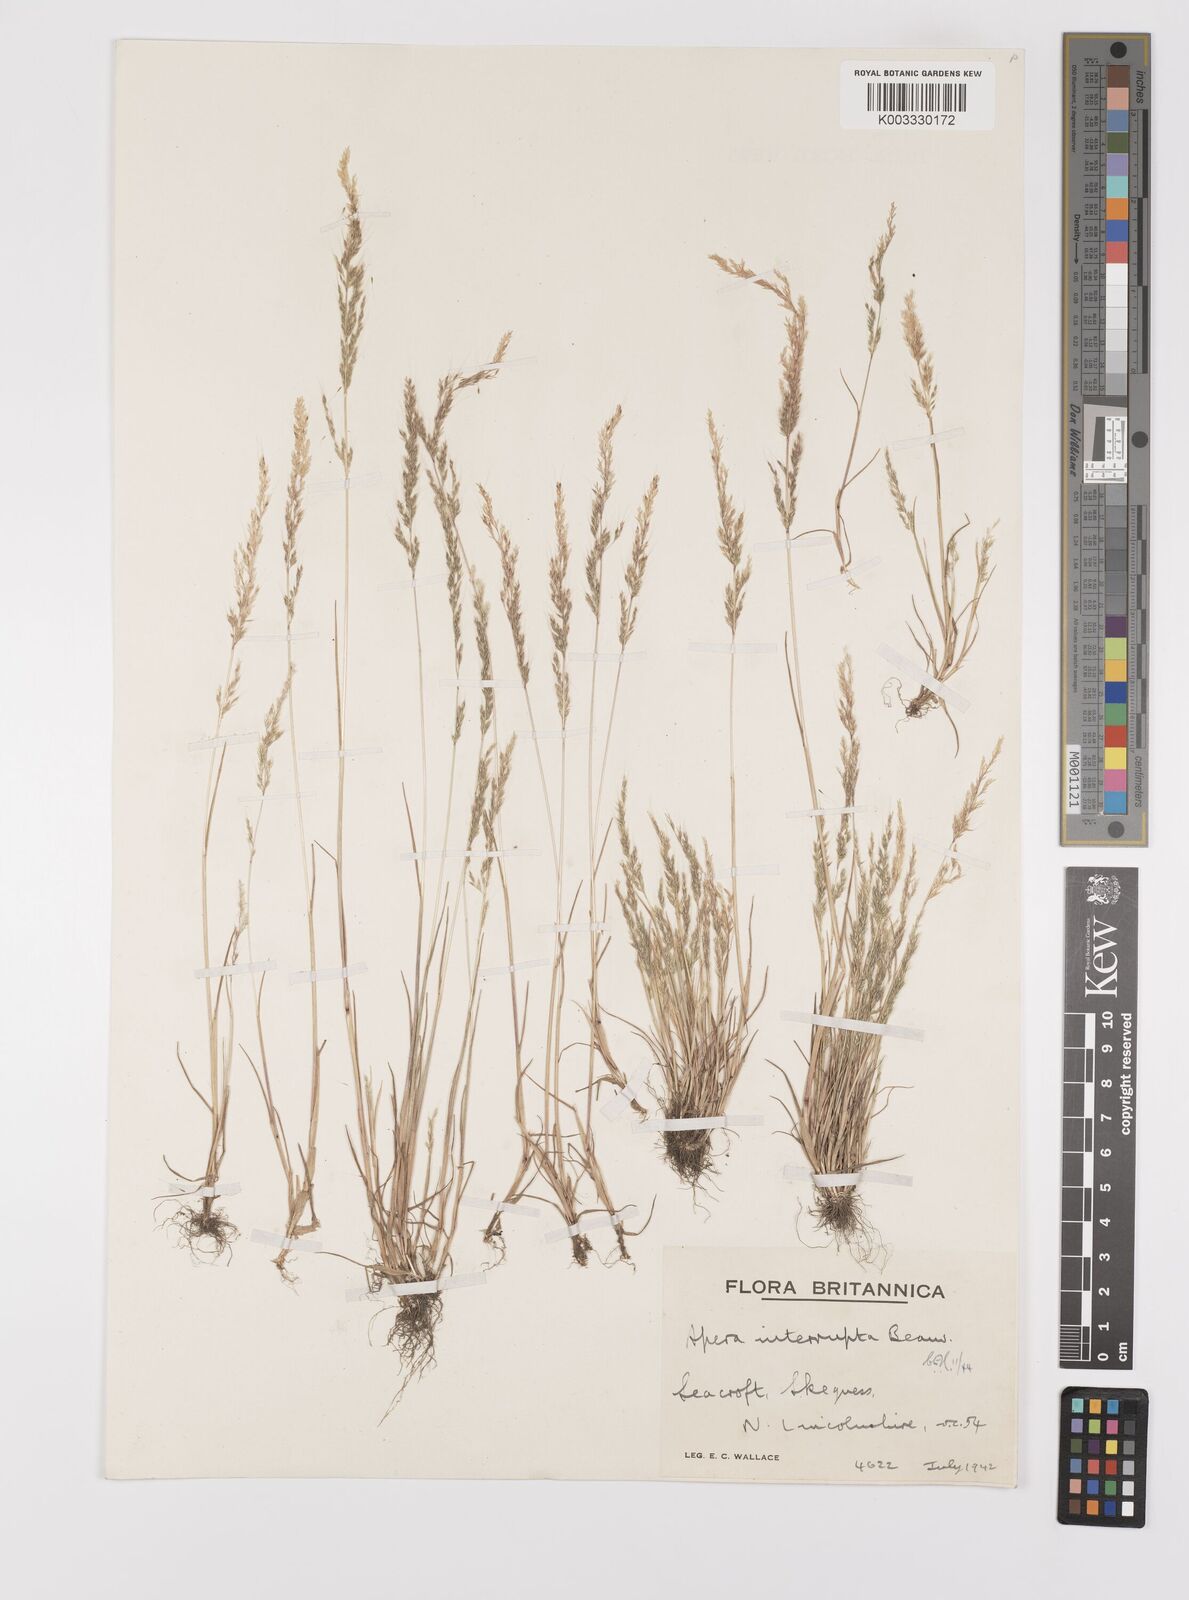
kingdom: Plantae
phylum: Tracheophyta
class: Liliopsida
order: Poales
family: Poaceae
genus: Apera
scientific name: Apera interrupta
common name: Dense silky-bent
